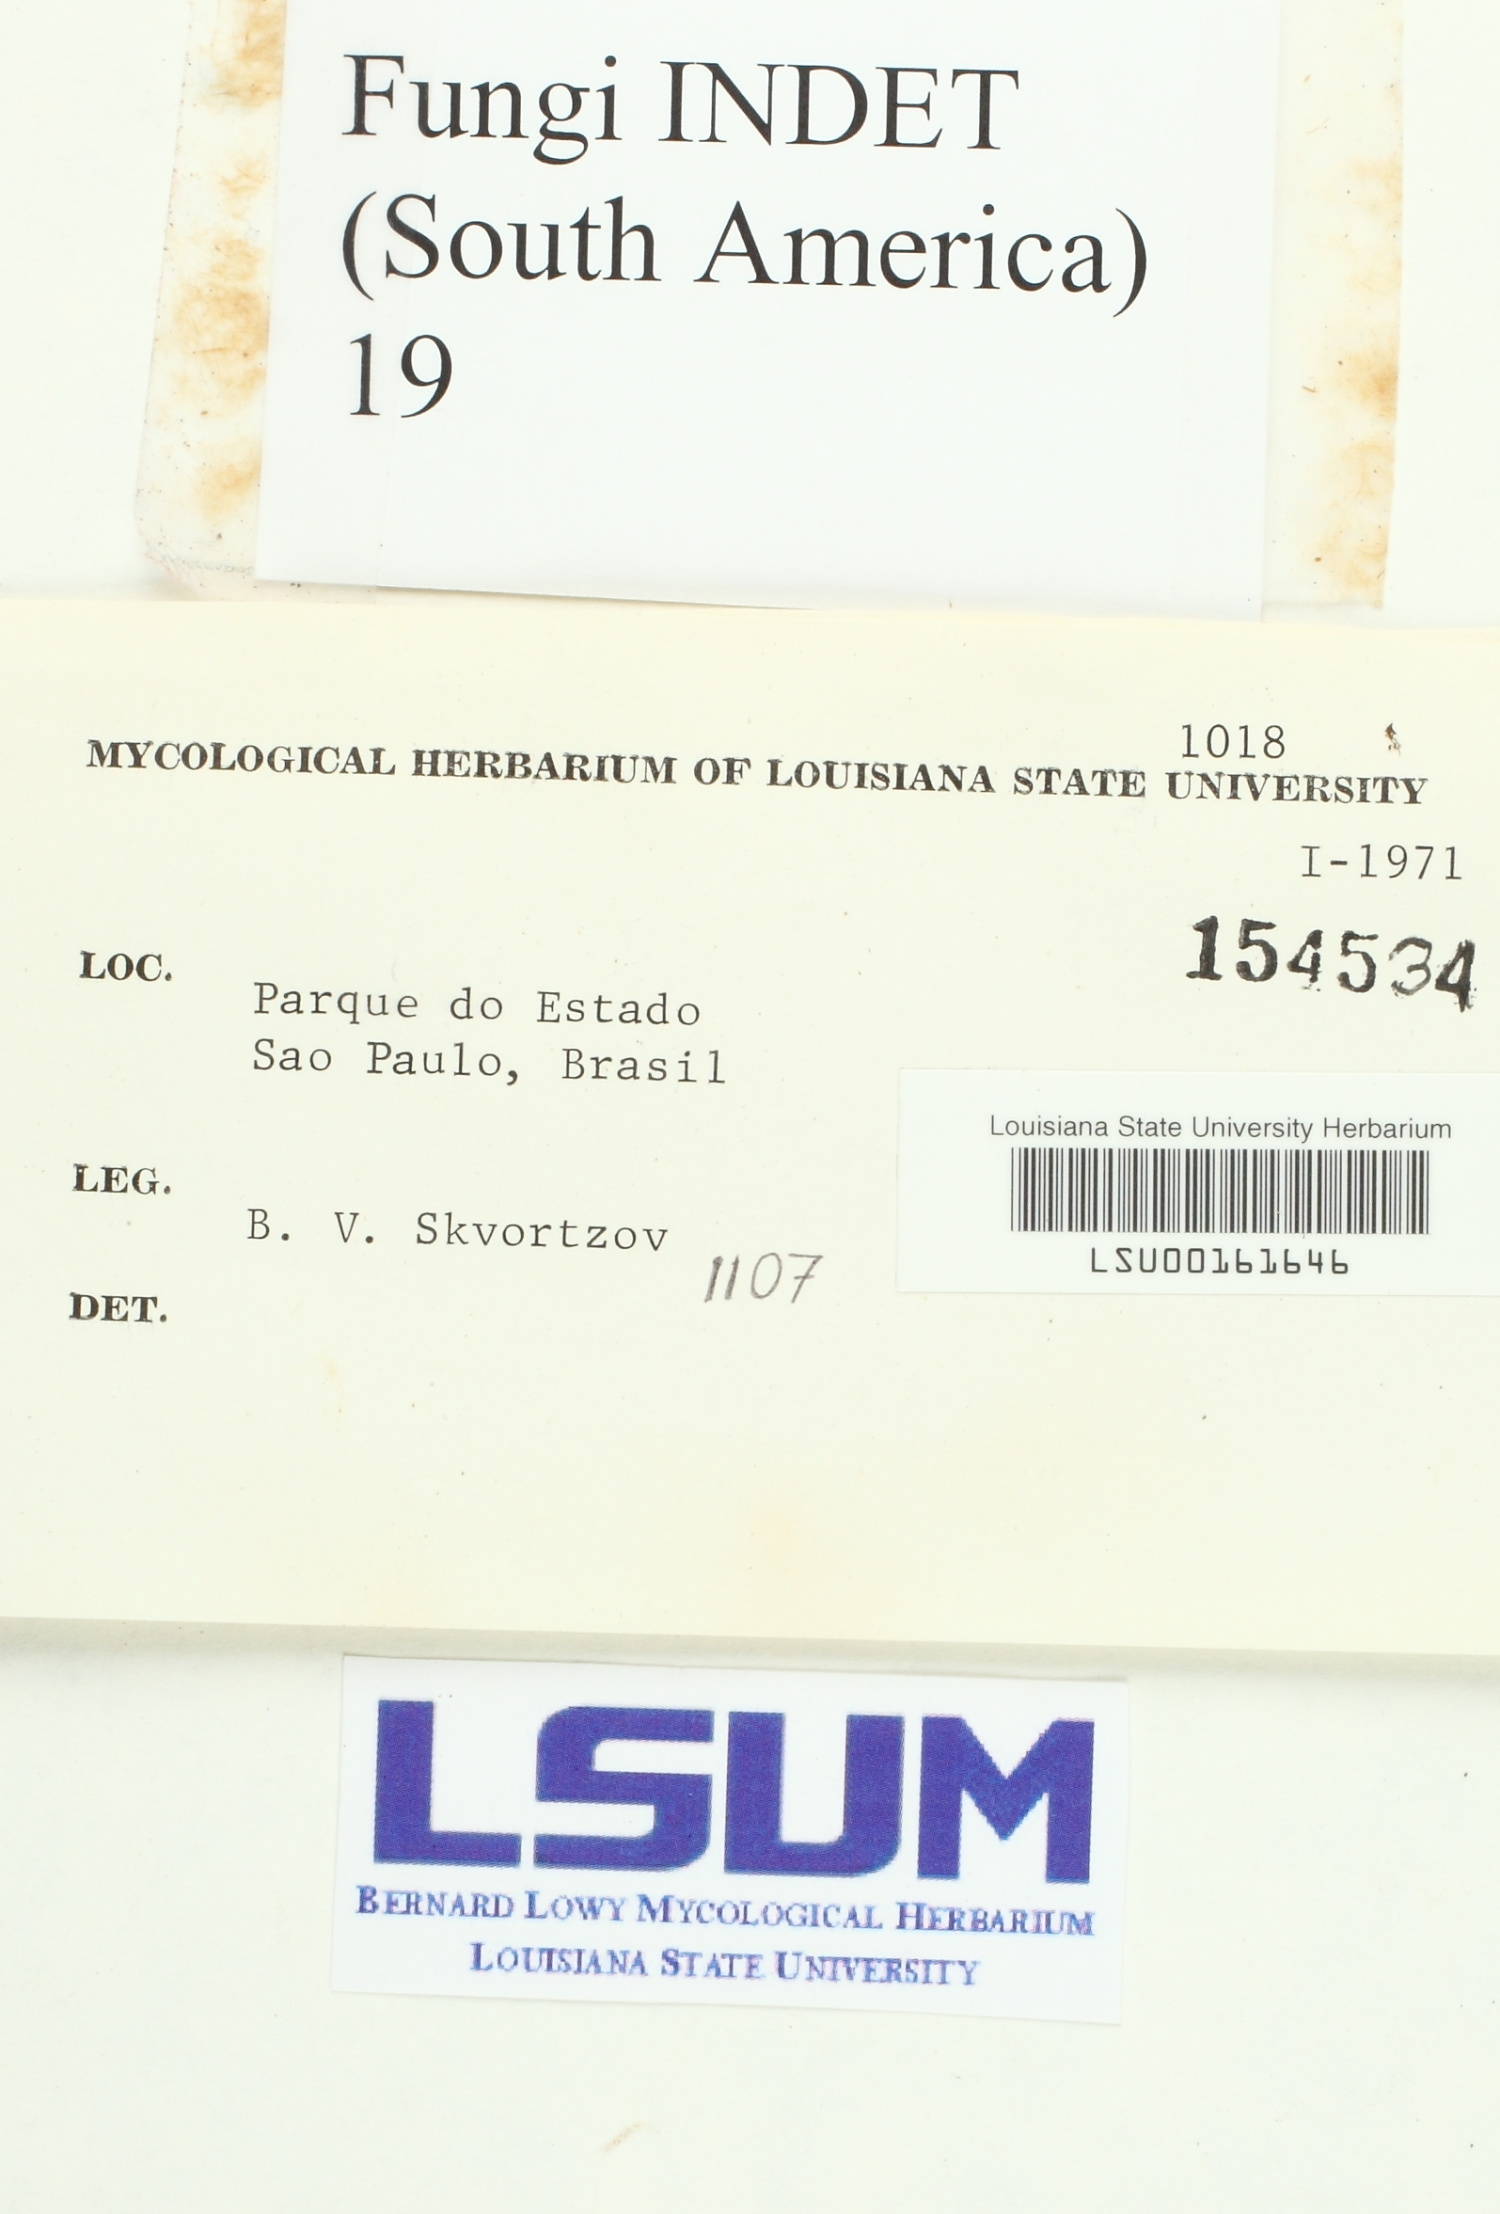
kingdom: Fungi
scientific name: Fungi
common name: Fungi
